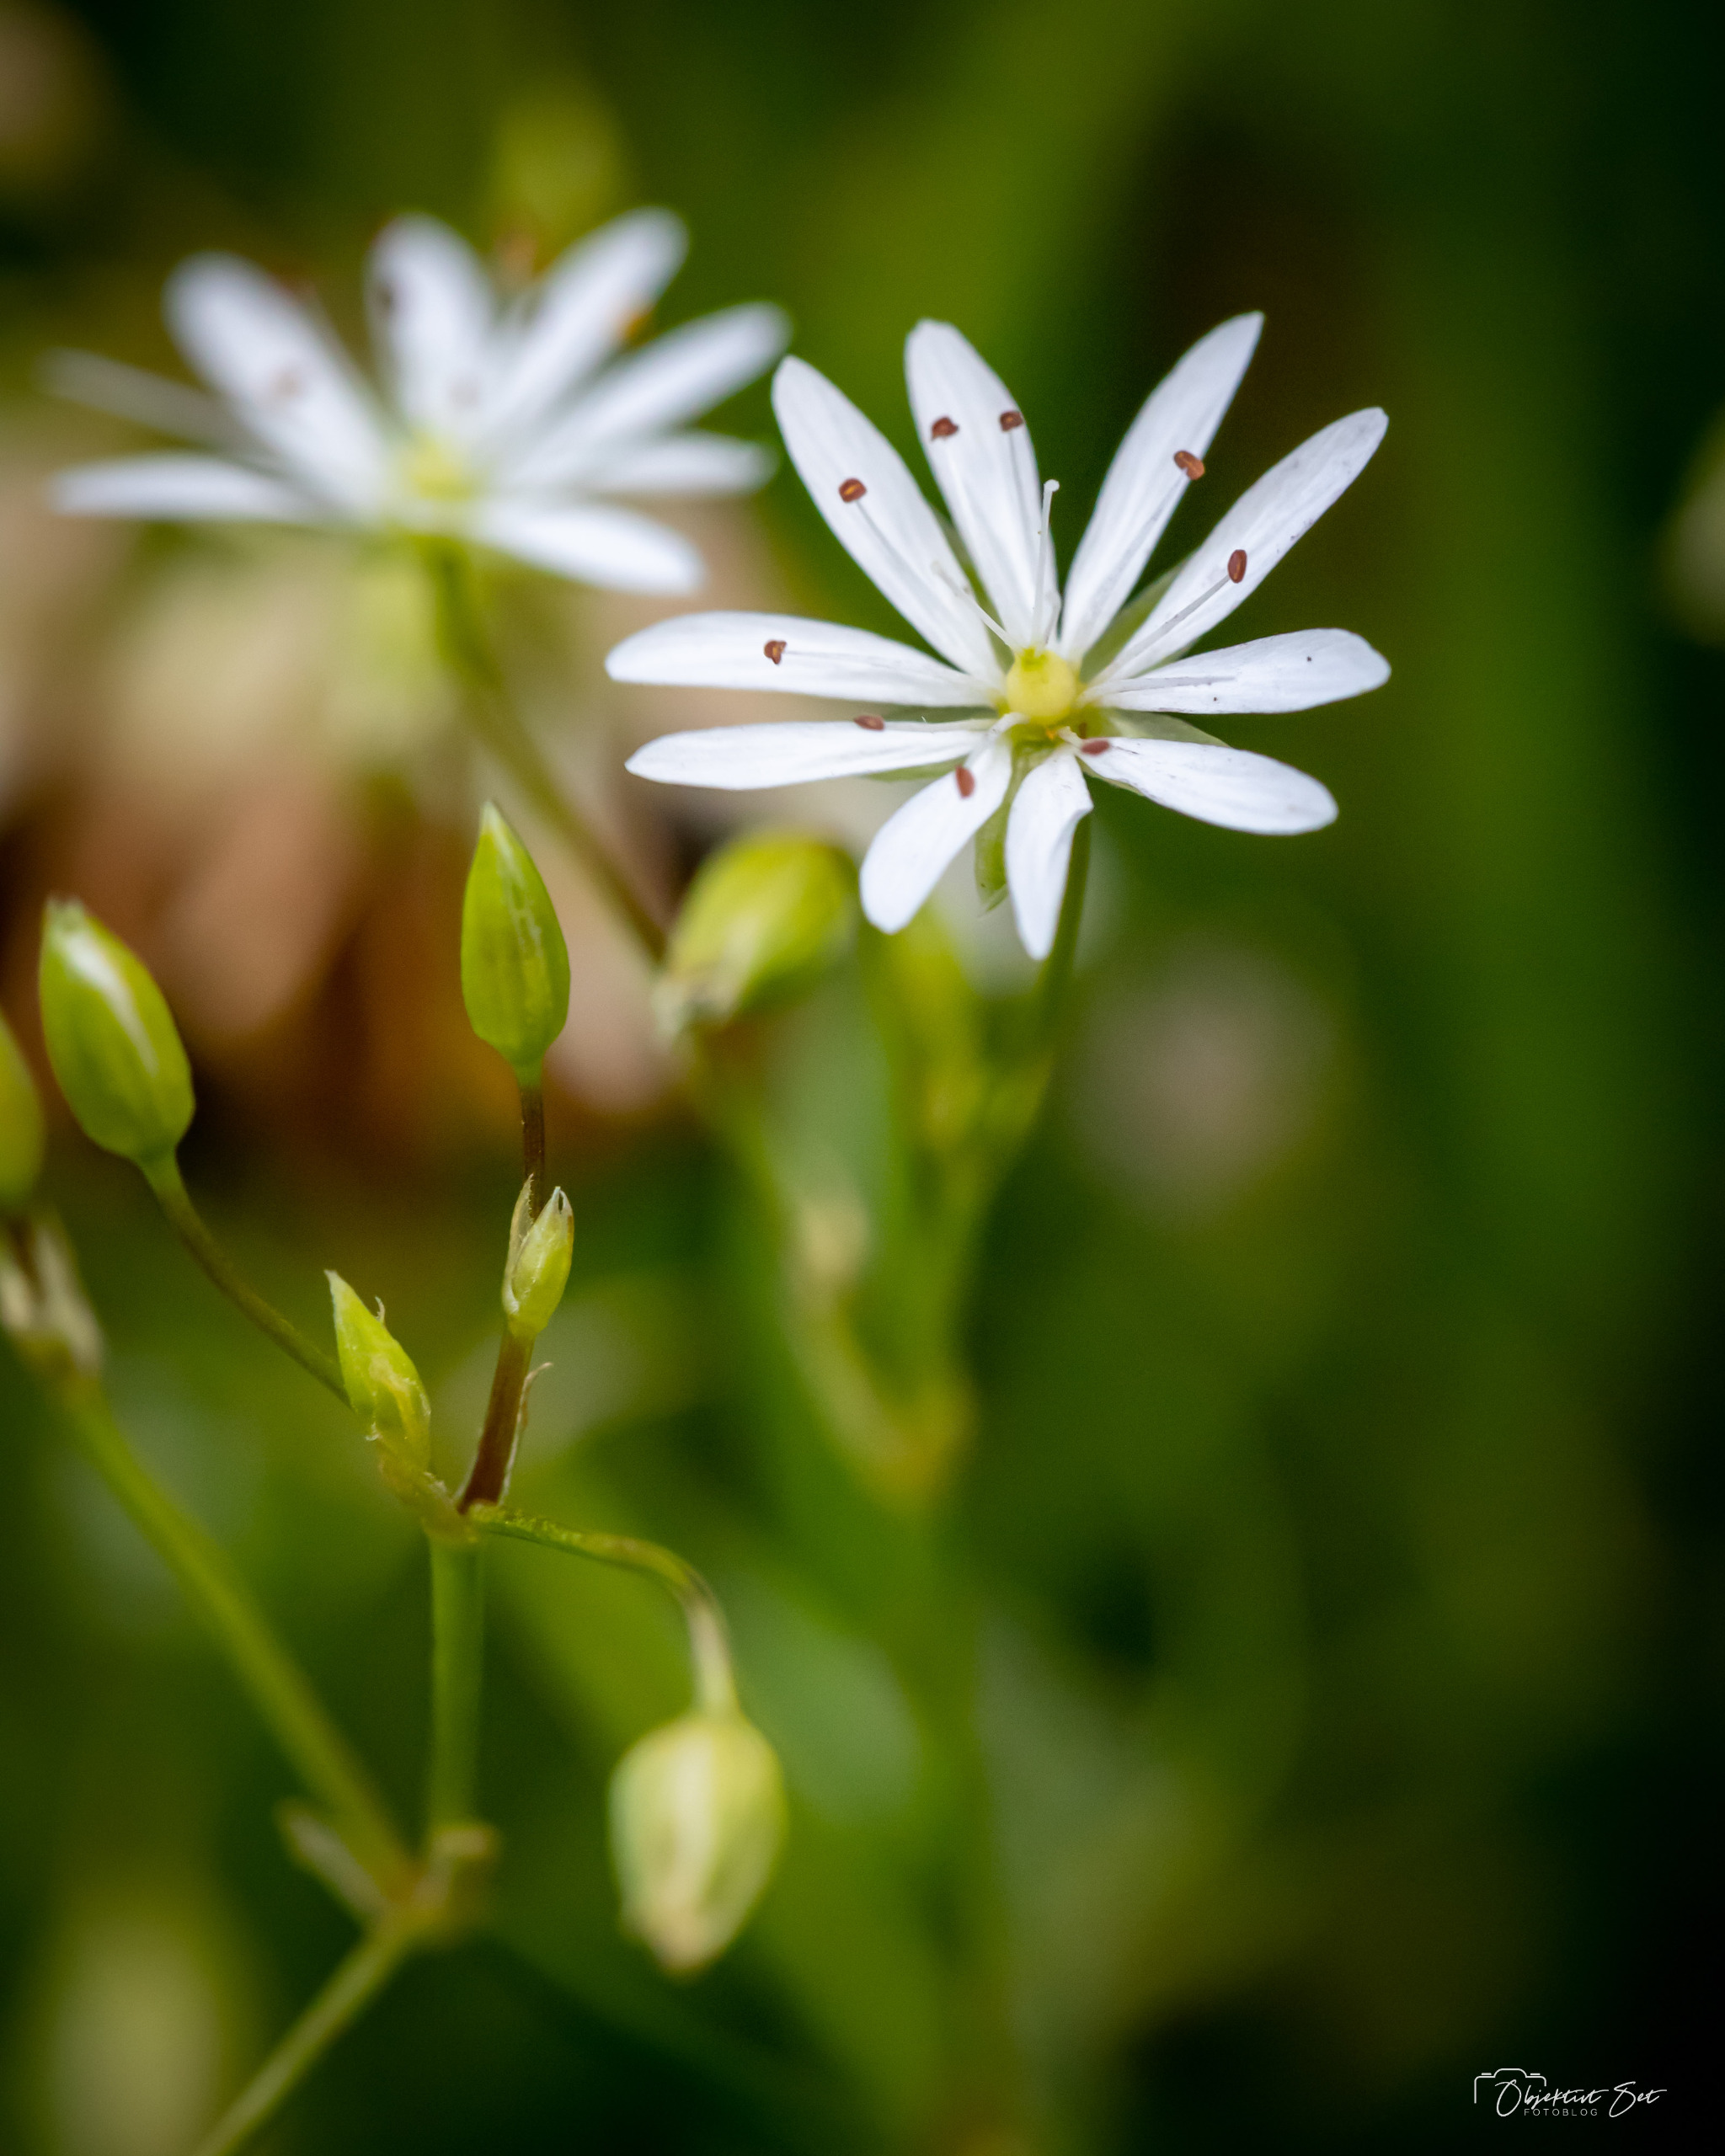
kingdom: Plantae
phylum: Tracheophyta
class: Magnoliopsida
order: Caryophyllales
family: Caryophyllaceae
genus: Stellaria
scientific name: Stellaria graminea
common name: Græsbladet fladstjerne
